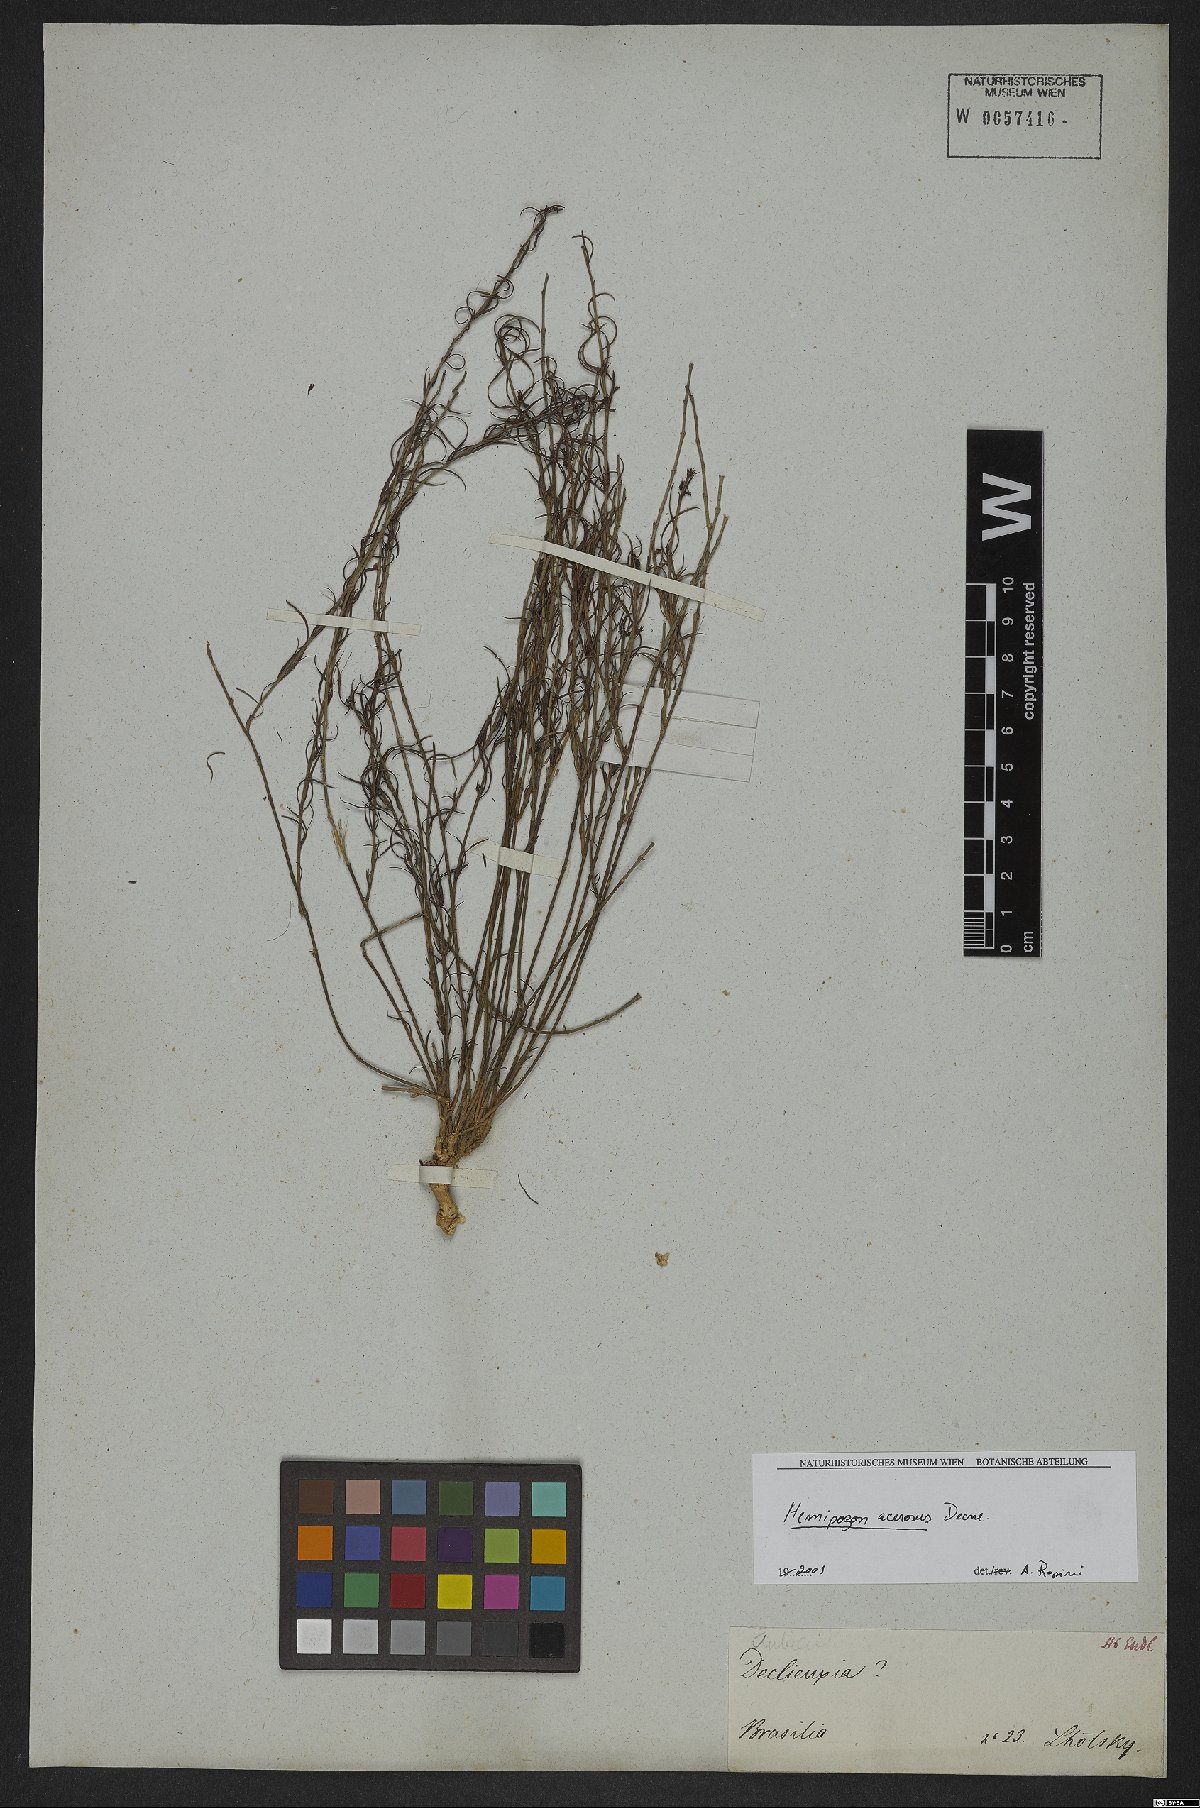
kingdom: Plantae
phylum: Tracheophyta
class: Magnoliopsida
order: Gentianales
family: Apocynaceae
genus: Hemipogon
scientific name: Hemipogon acerosus
